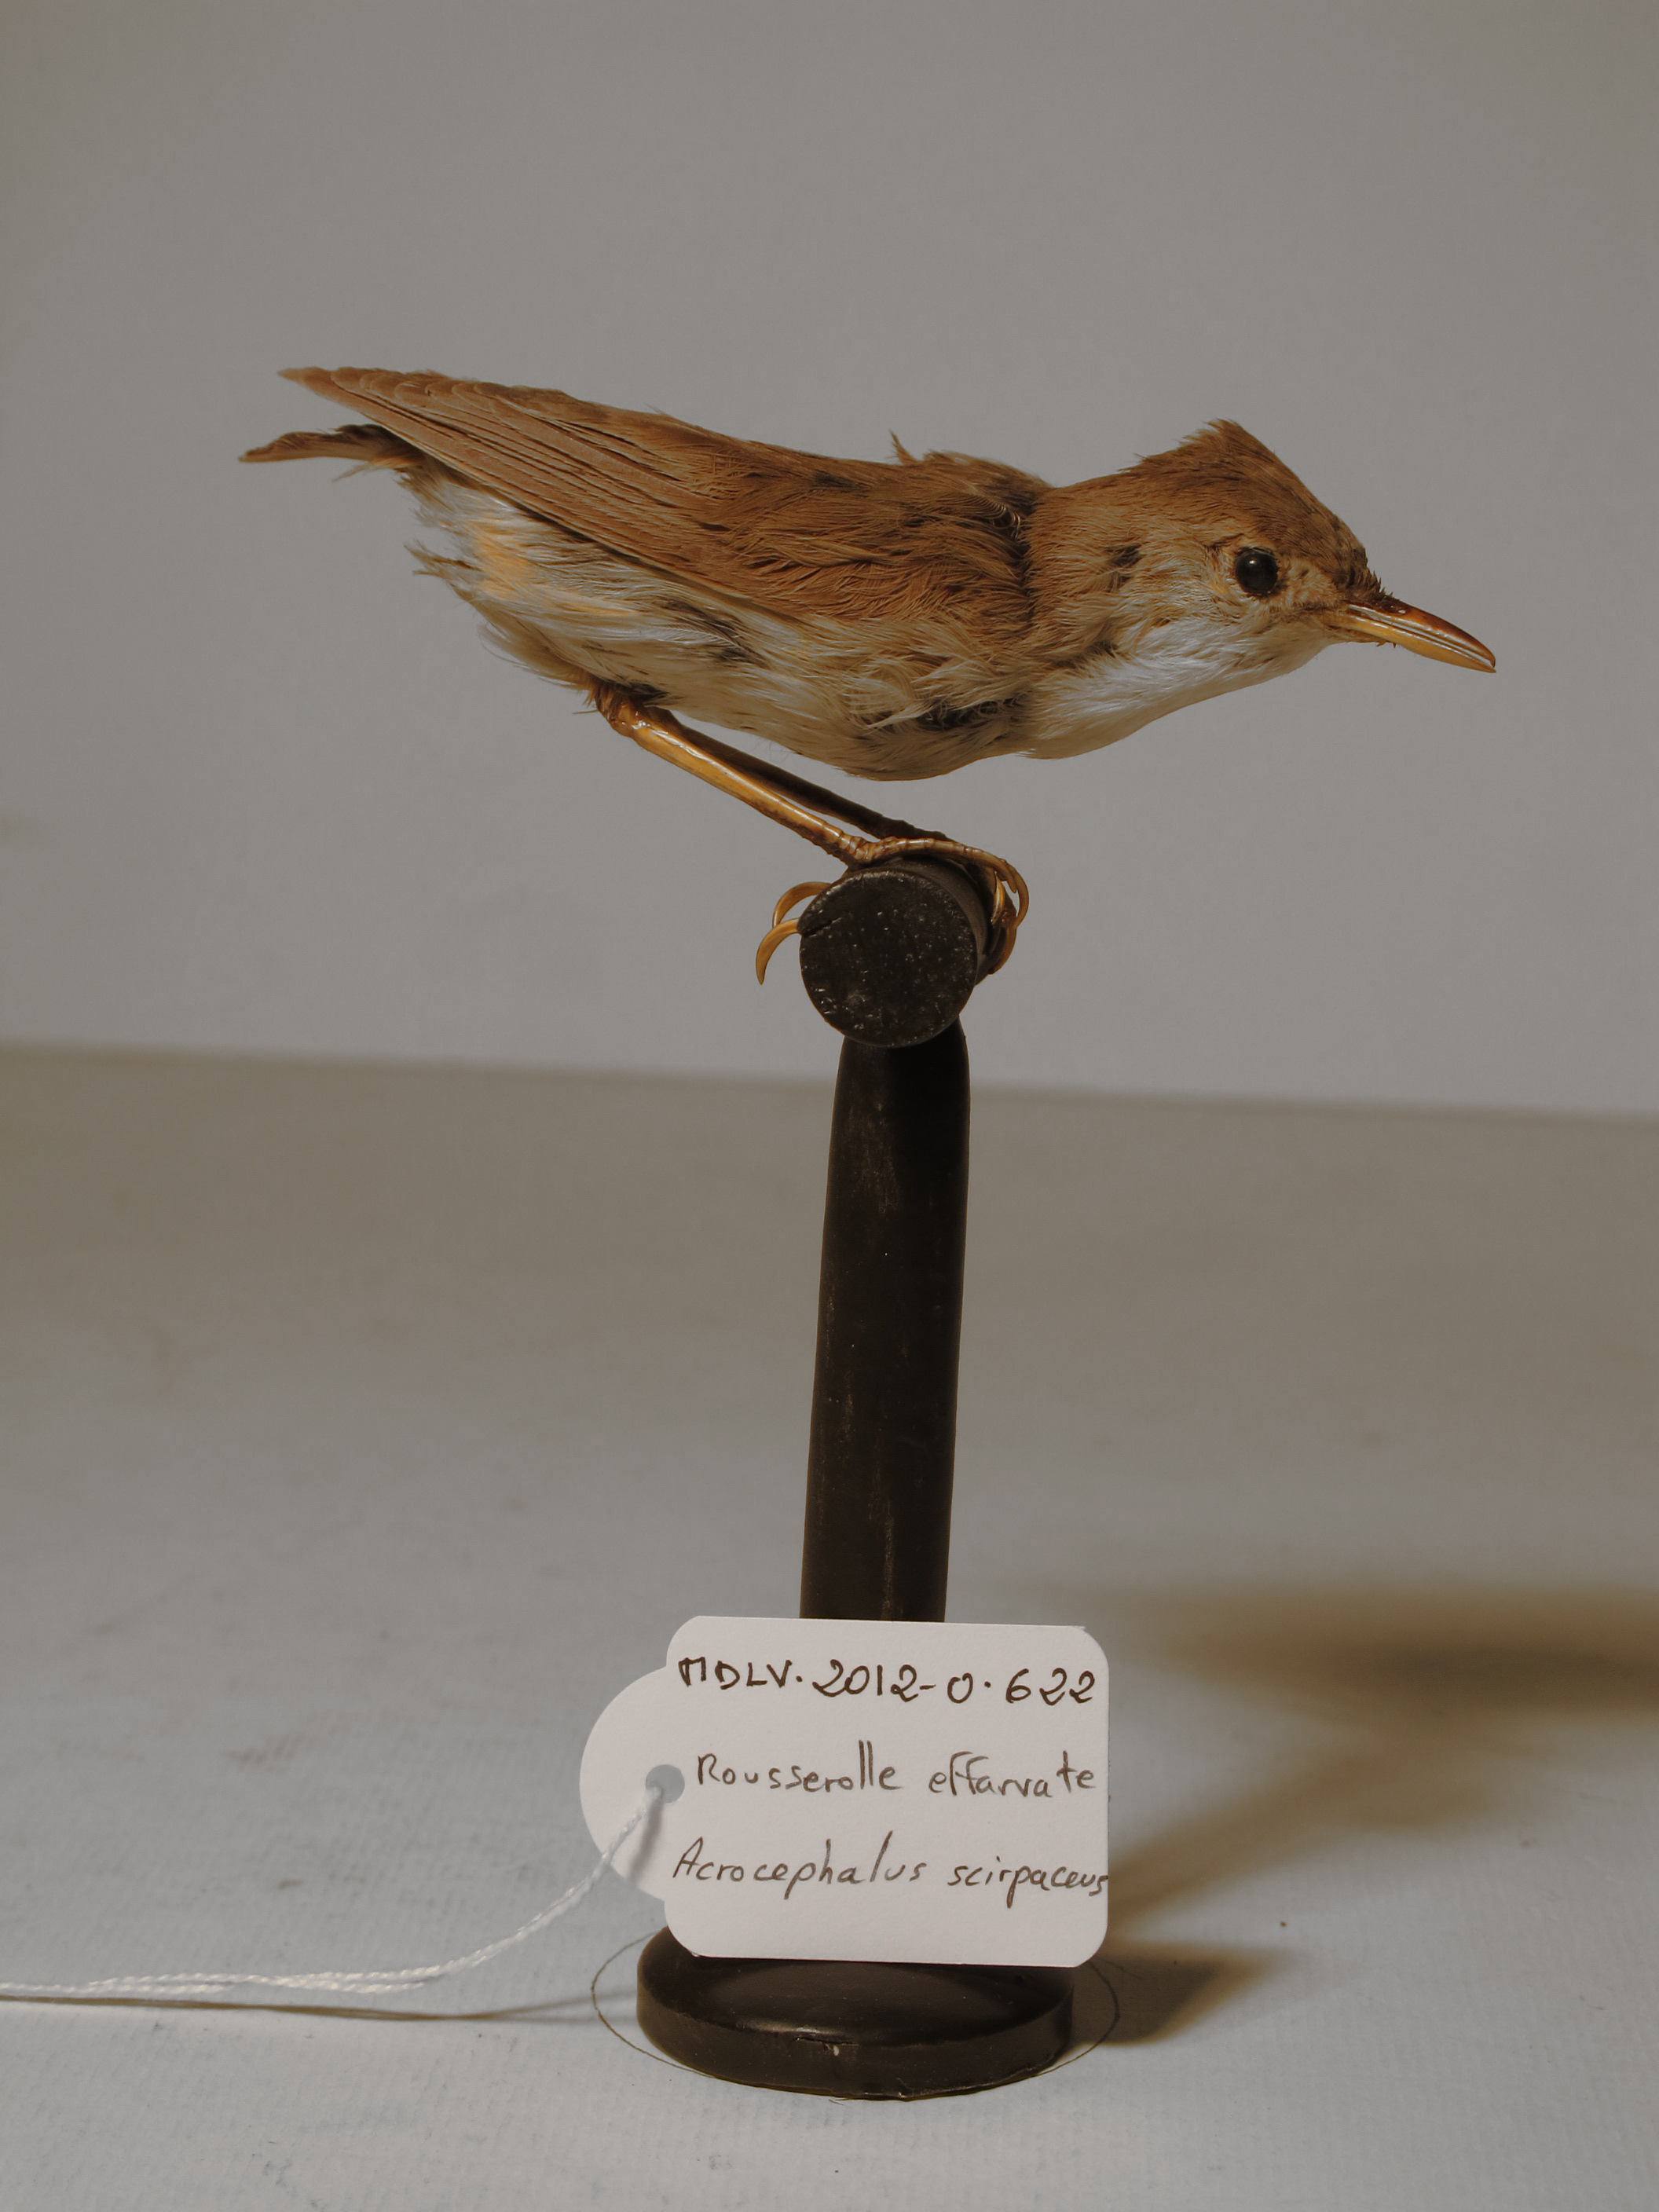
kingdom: Animalia
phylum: Chordata
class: Aves
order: Passeriformes
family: Acrocephalidae
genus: Acrocephalus
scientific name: Acrocephalus scirpaceus
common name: Eurasian Reed-warbler
